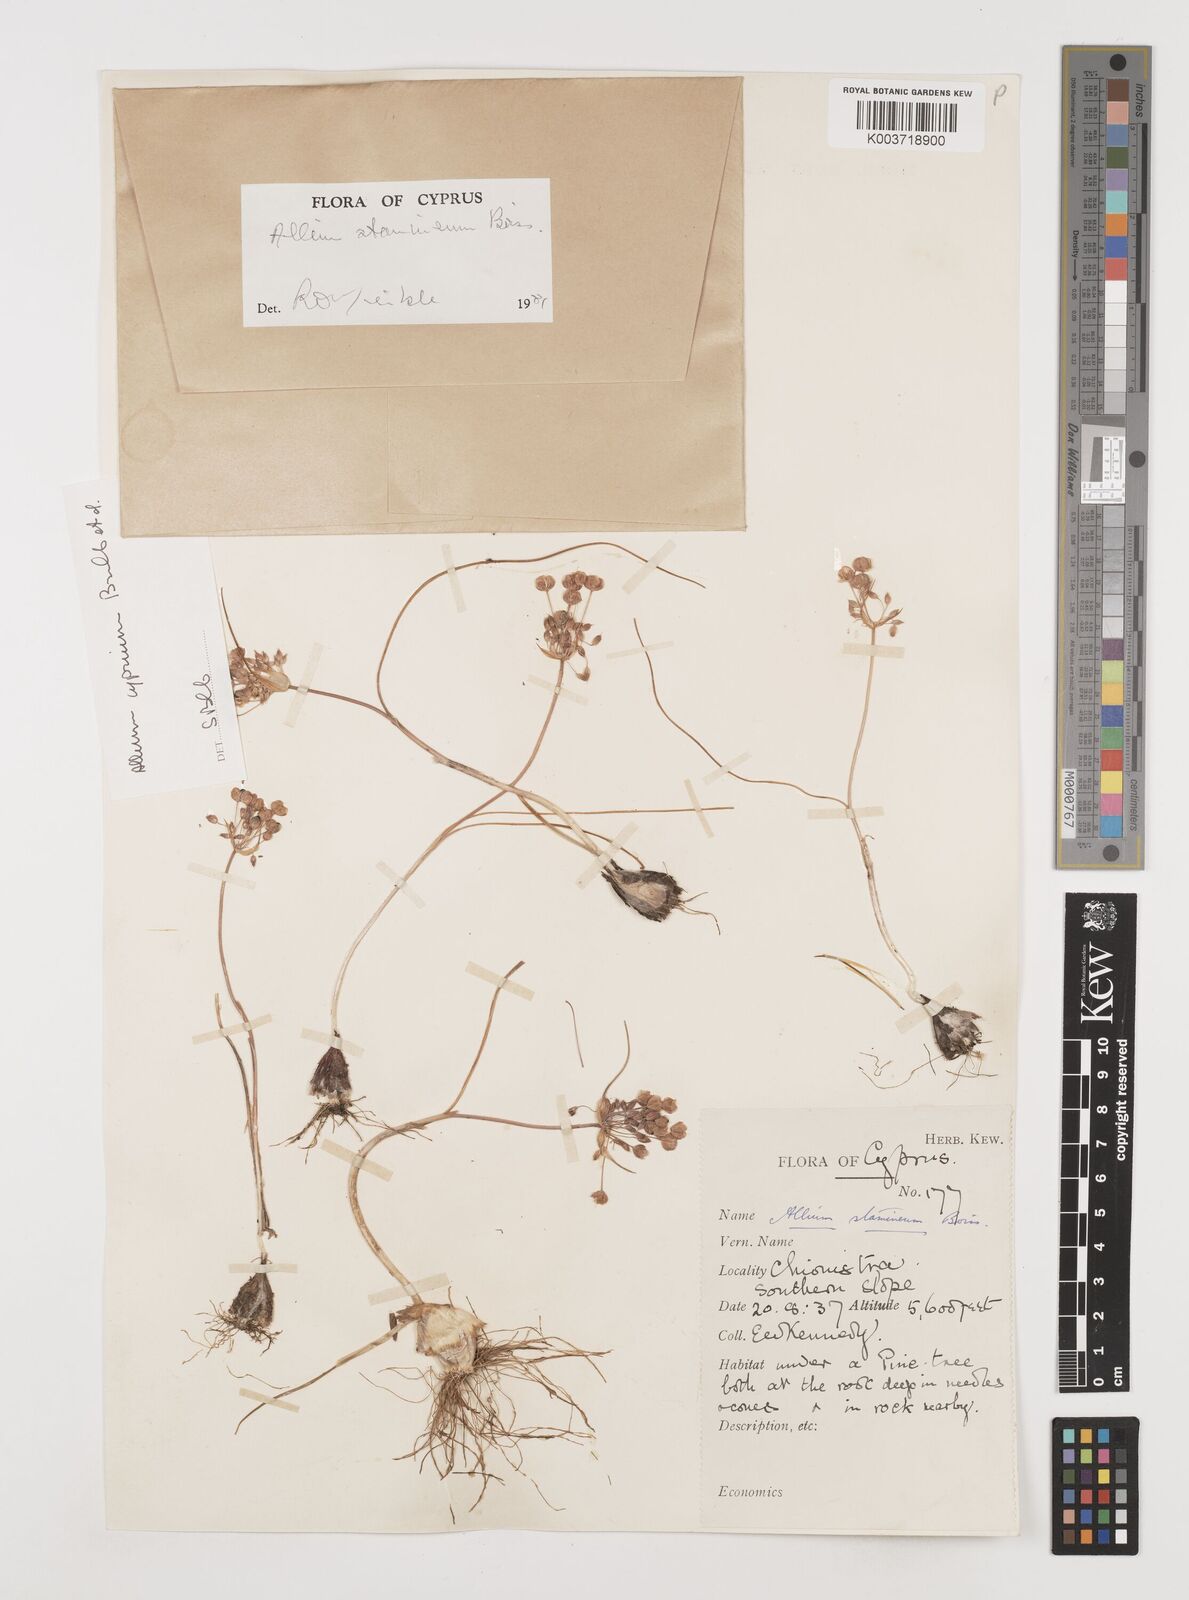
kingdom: Plantae
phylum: Tracheophyta
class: Liliopsida
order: Asparagales
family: Amaryllidaceae
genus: Allium
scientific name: Allium stamineum
